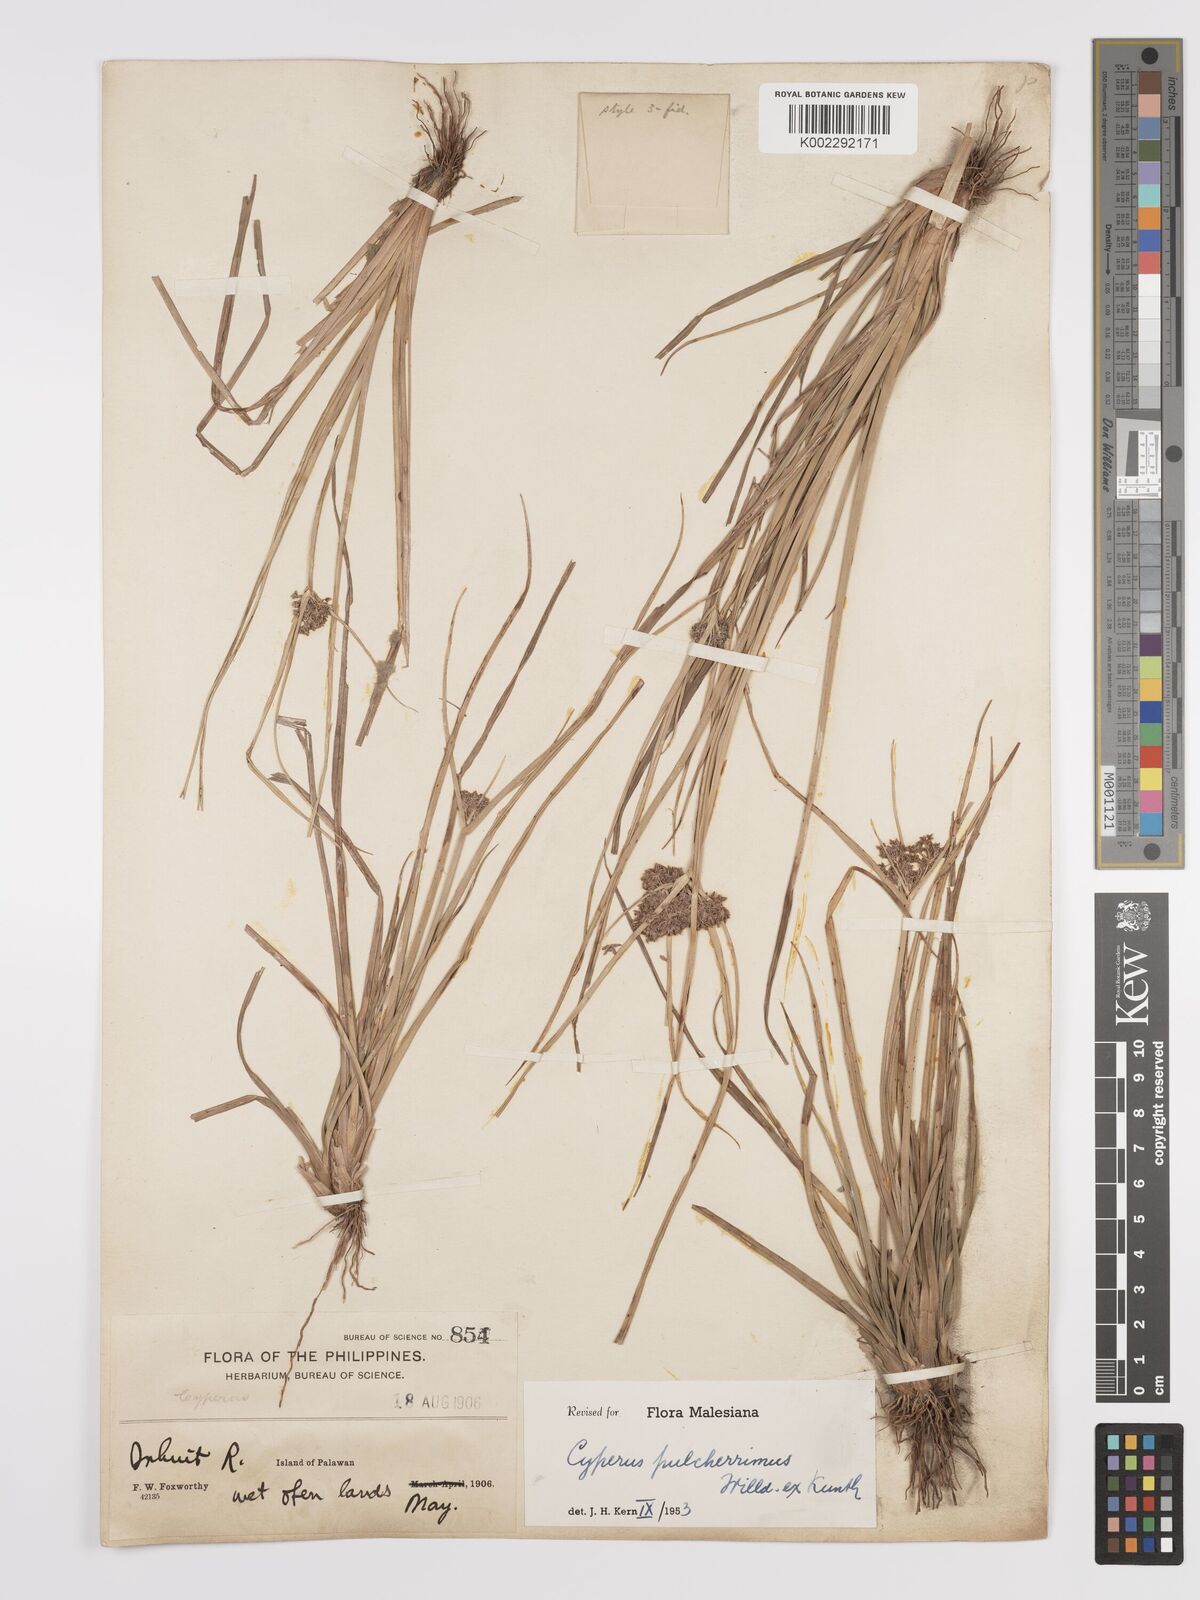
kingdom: Plantae
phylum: Tracheophyta
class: Liliopsida
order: Poales
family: Cyperaceae
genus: Cyperus
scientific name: Cyperus pulcherrimus
